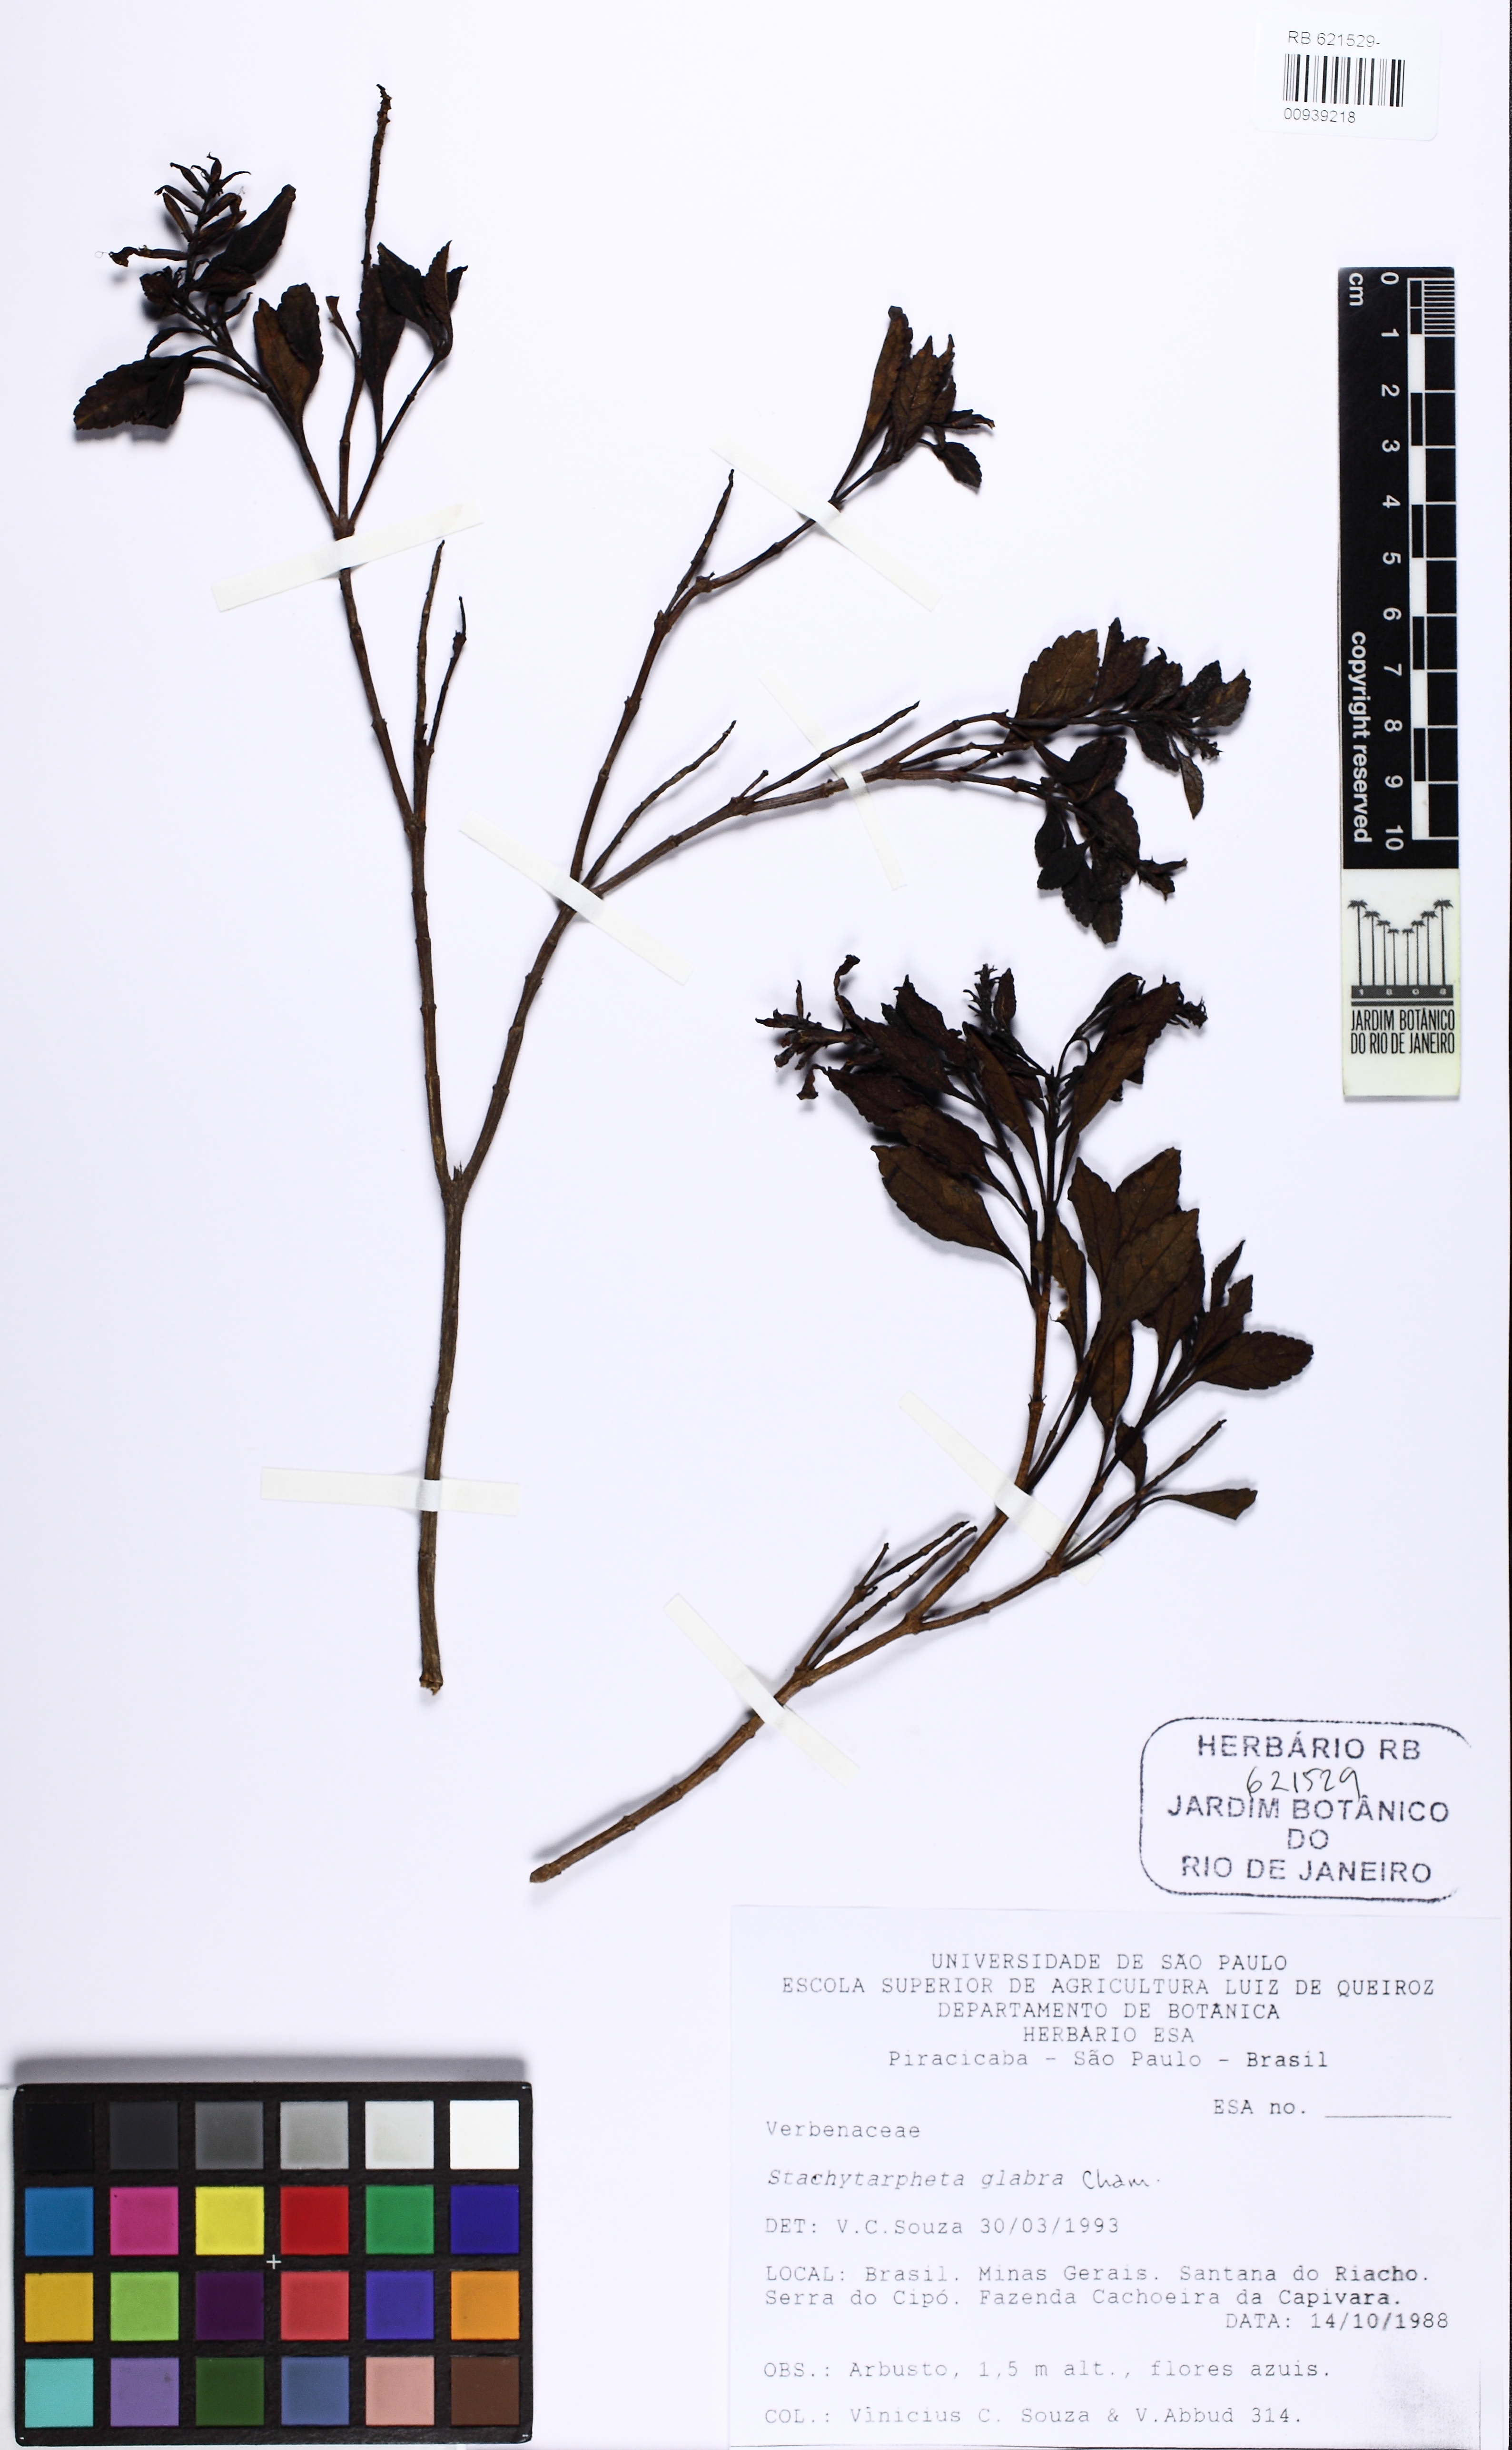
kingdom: Plantae
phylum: Tracheophyta
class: Magnoliopsida
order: Lamiales
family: Verbenaceae
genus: Stachytarpheta
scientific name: Stachytarpheta glabra
